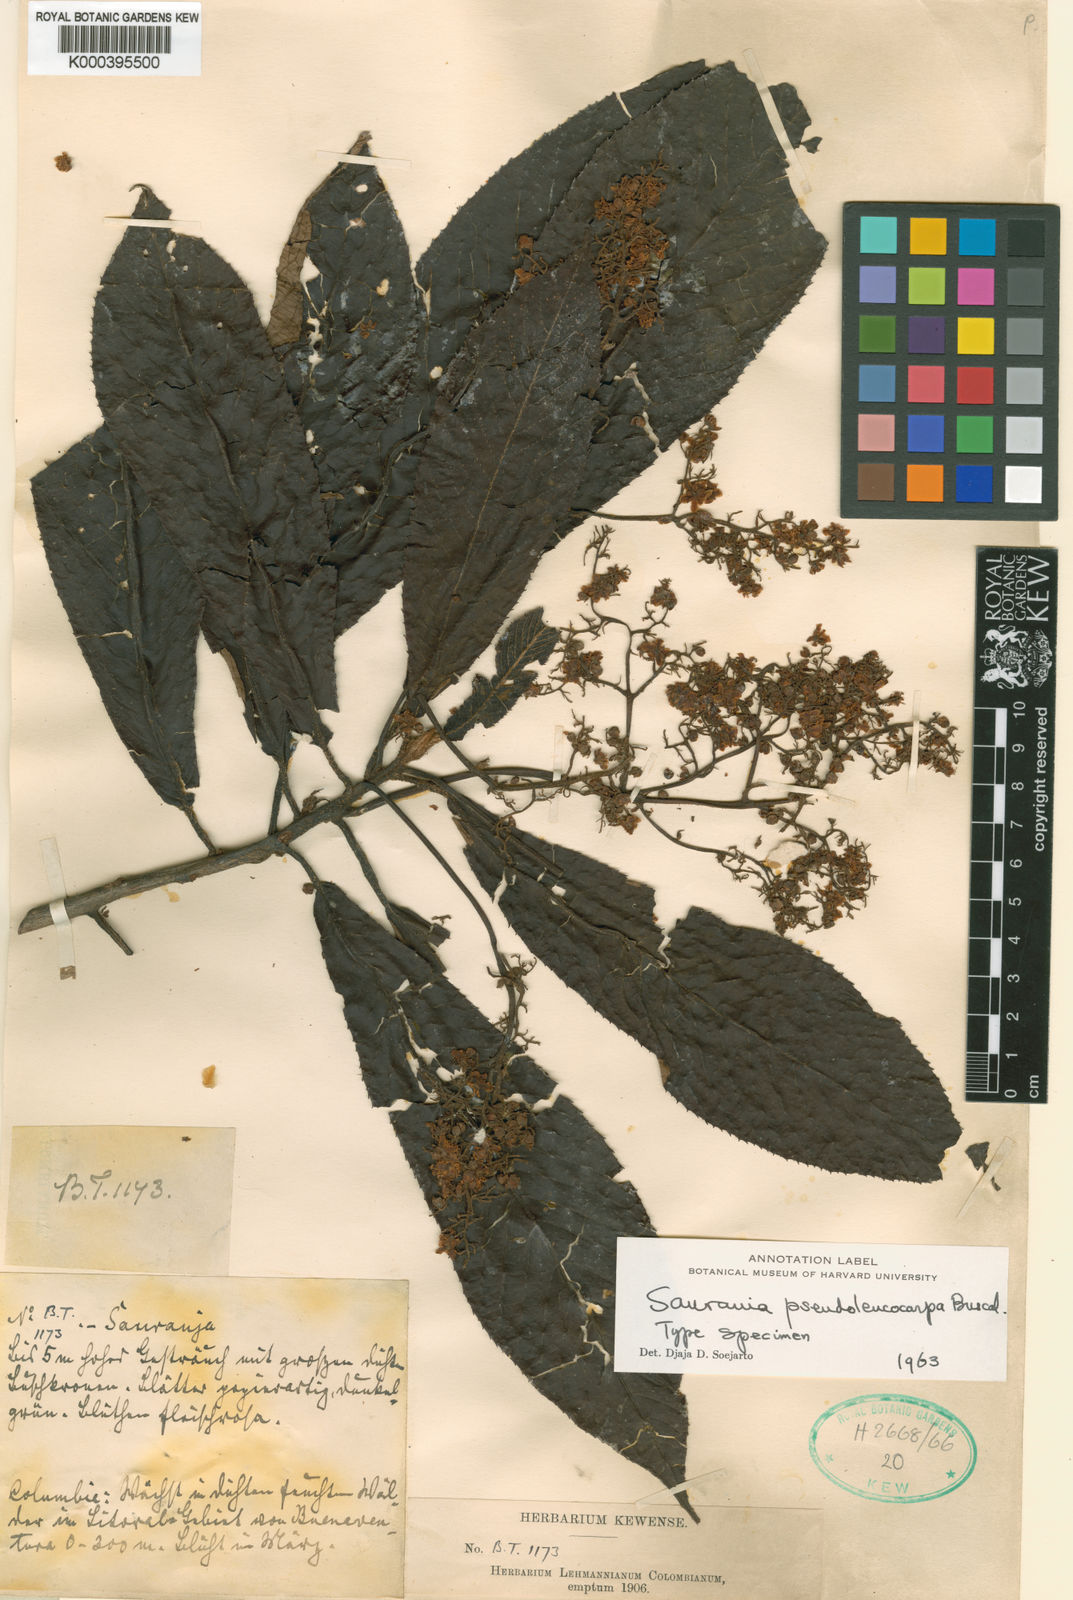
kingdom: Plantae
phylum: Tracheophyta
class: Magnoliopsida
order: Ericales
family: Actinidiaceae
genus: Saurauia
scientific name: Saurauia pseudoleucocarpa
